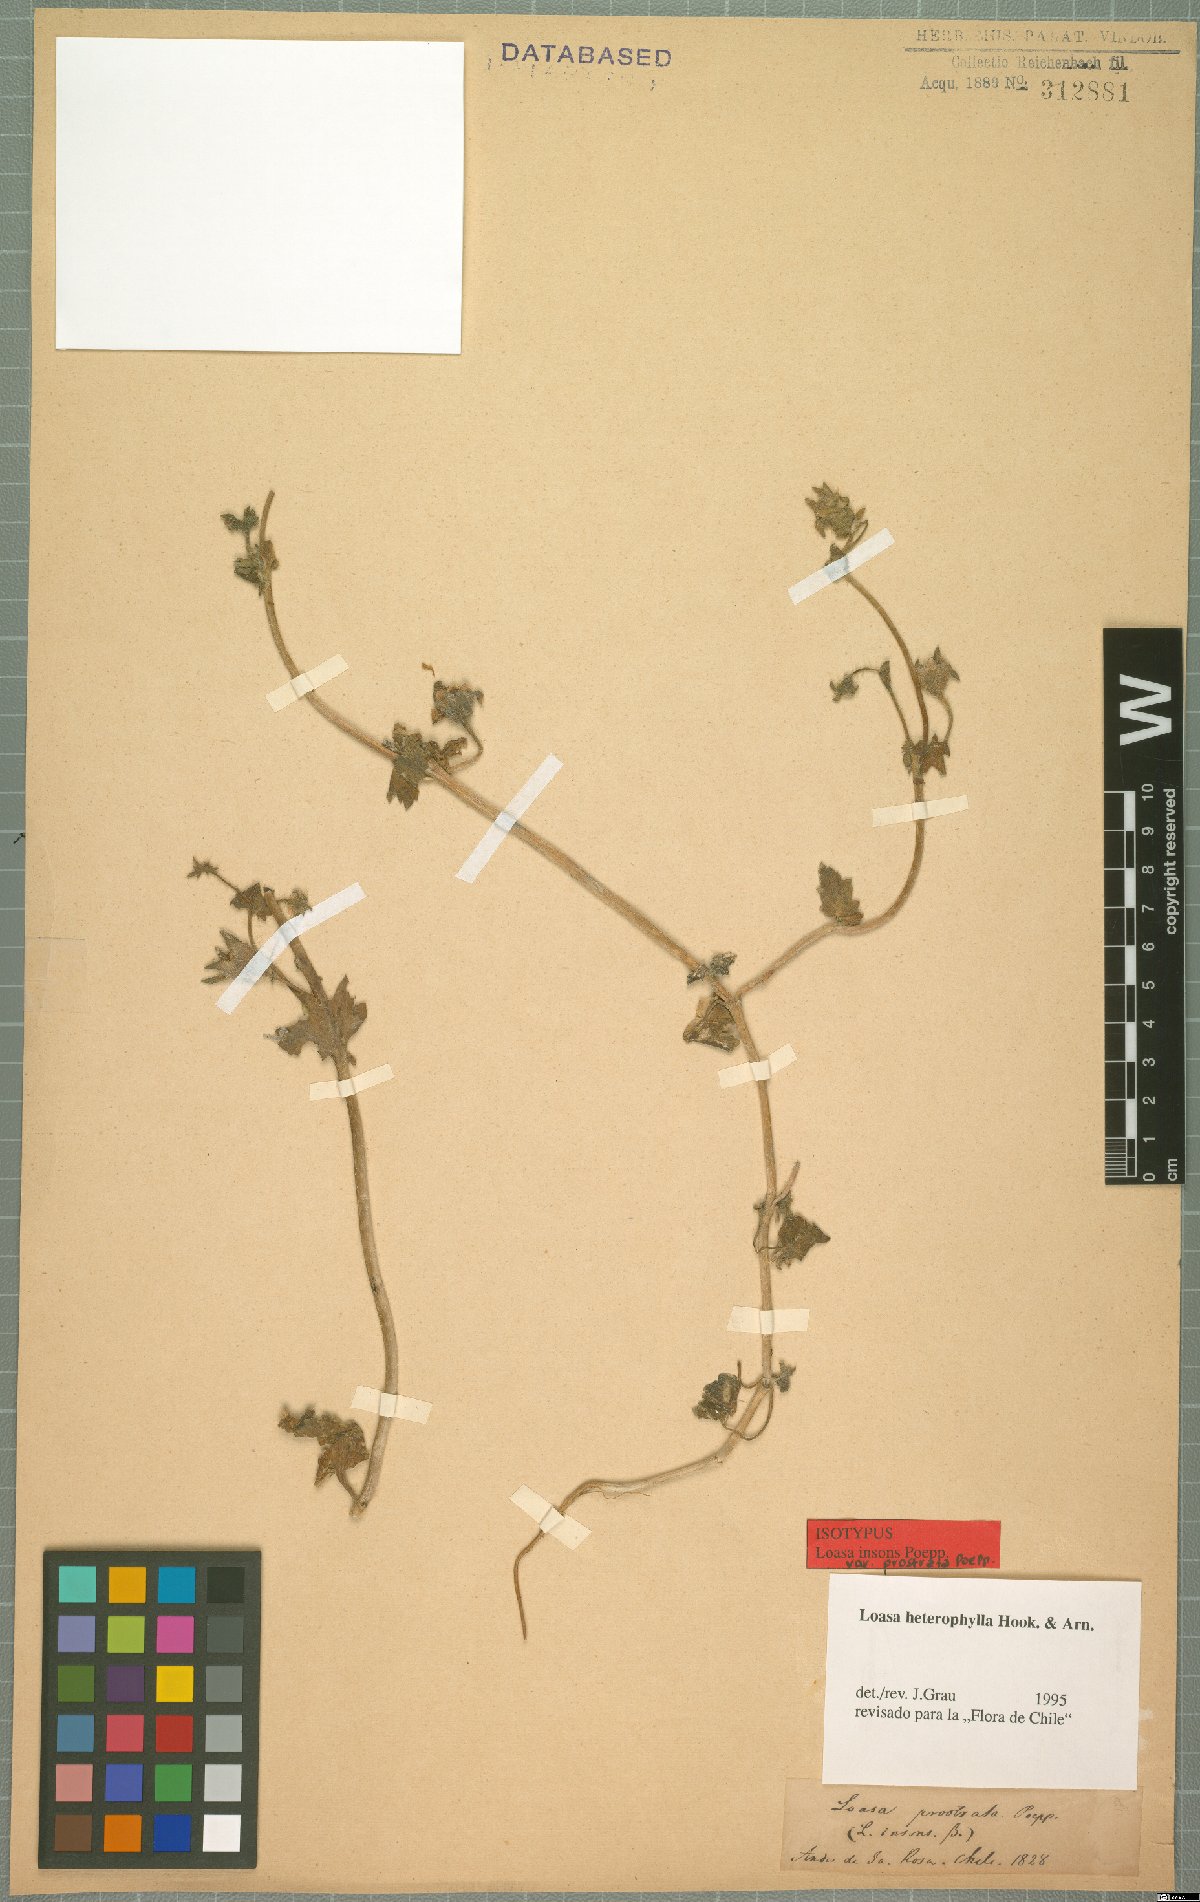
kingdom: Plantae
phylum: Tracheophyta
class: Magnoliopsida
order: Cornales
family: Loasaceae
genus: Loasa
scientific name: Loasa heterophylla
